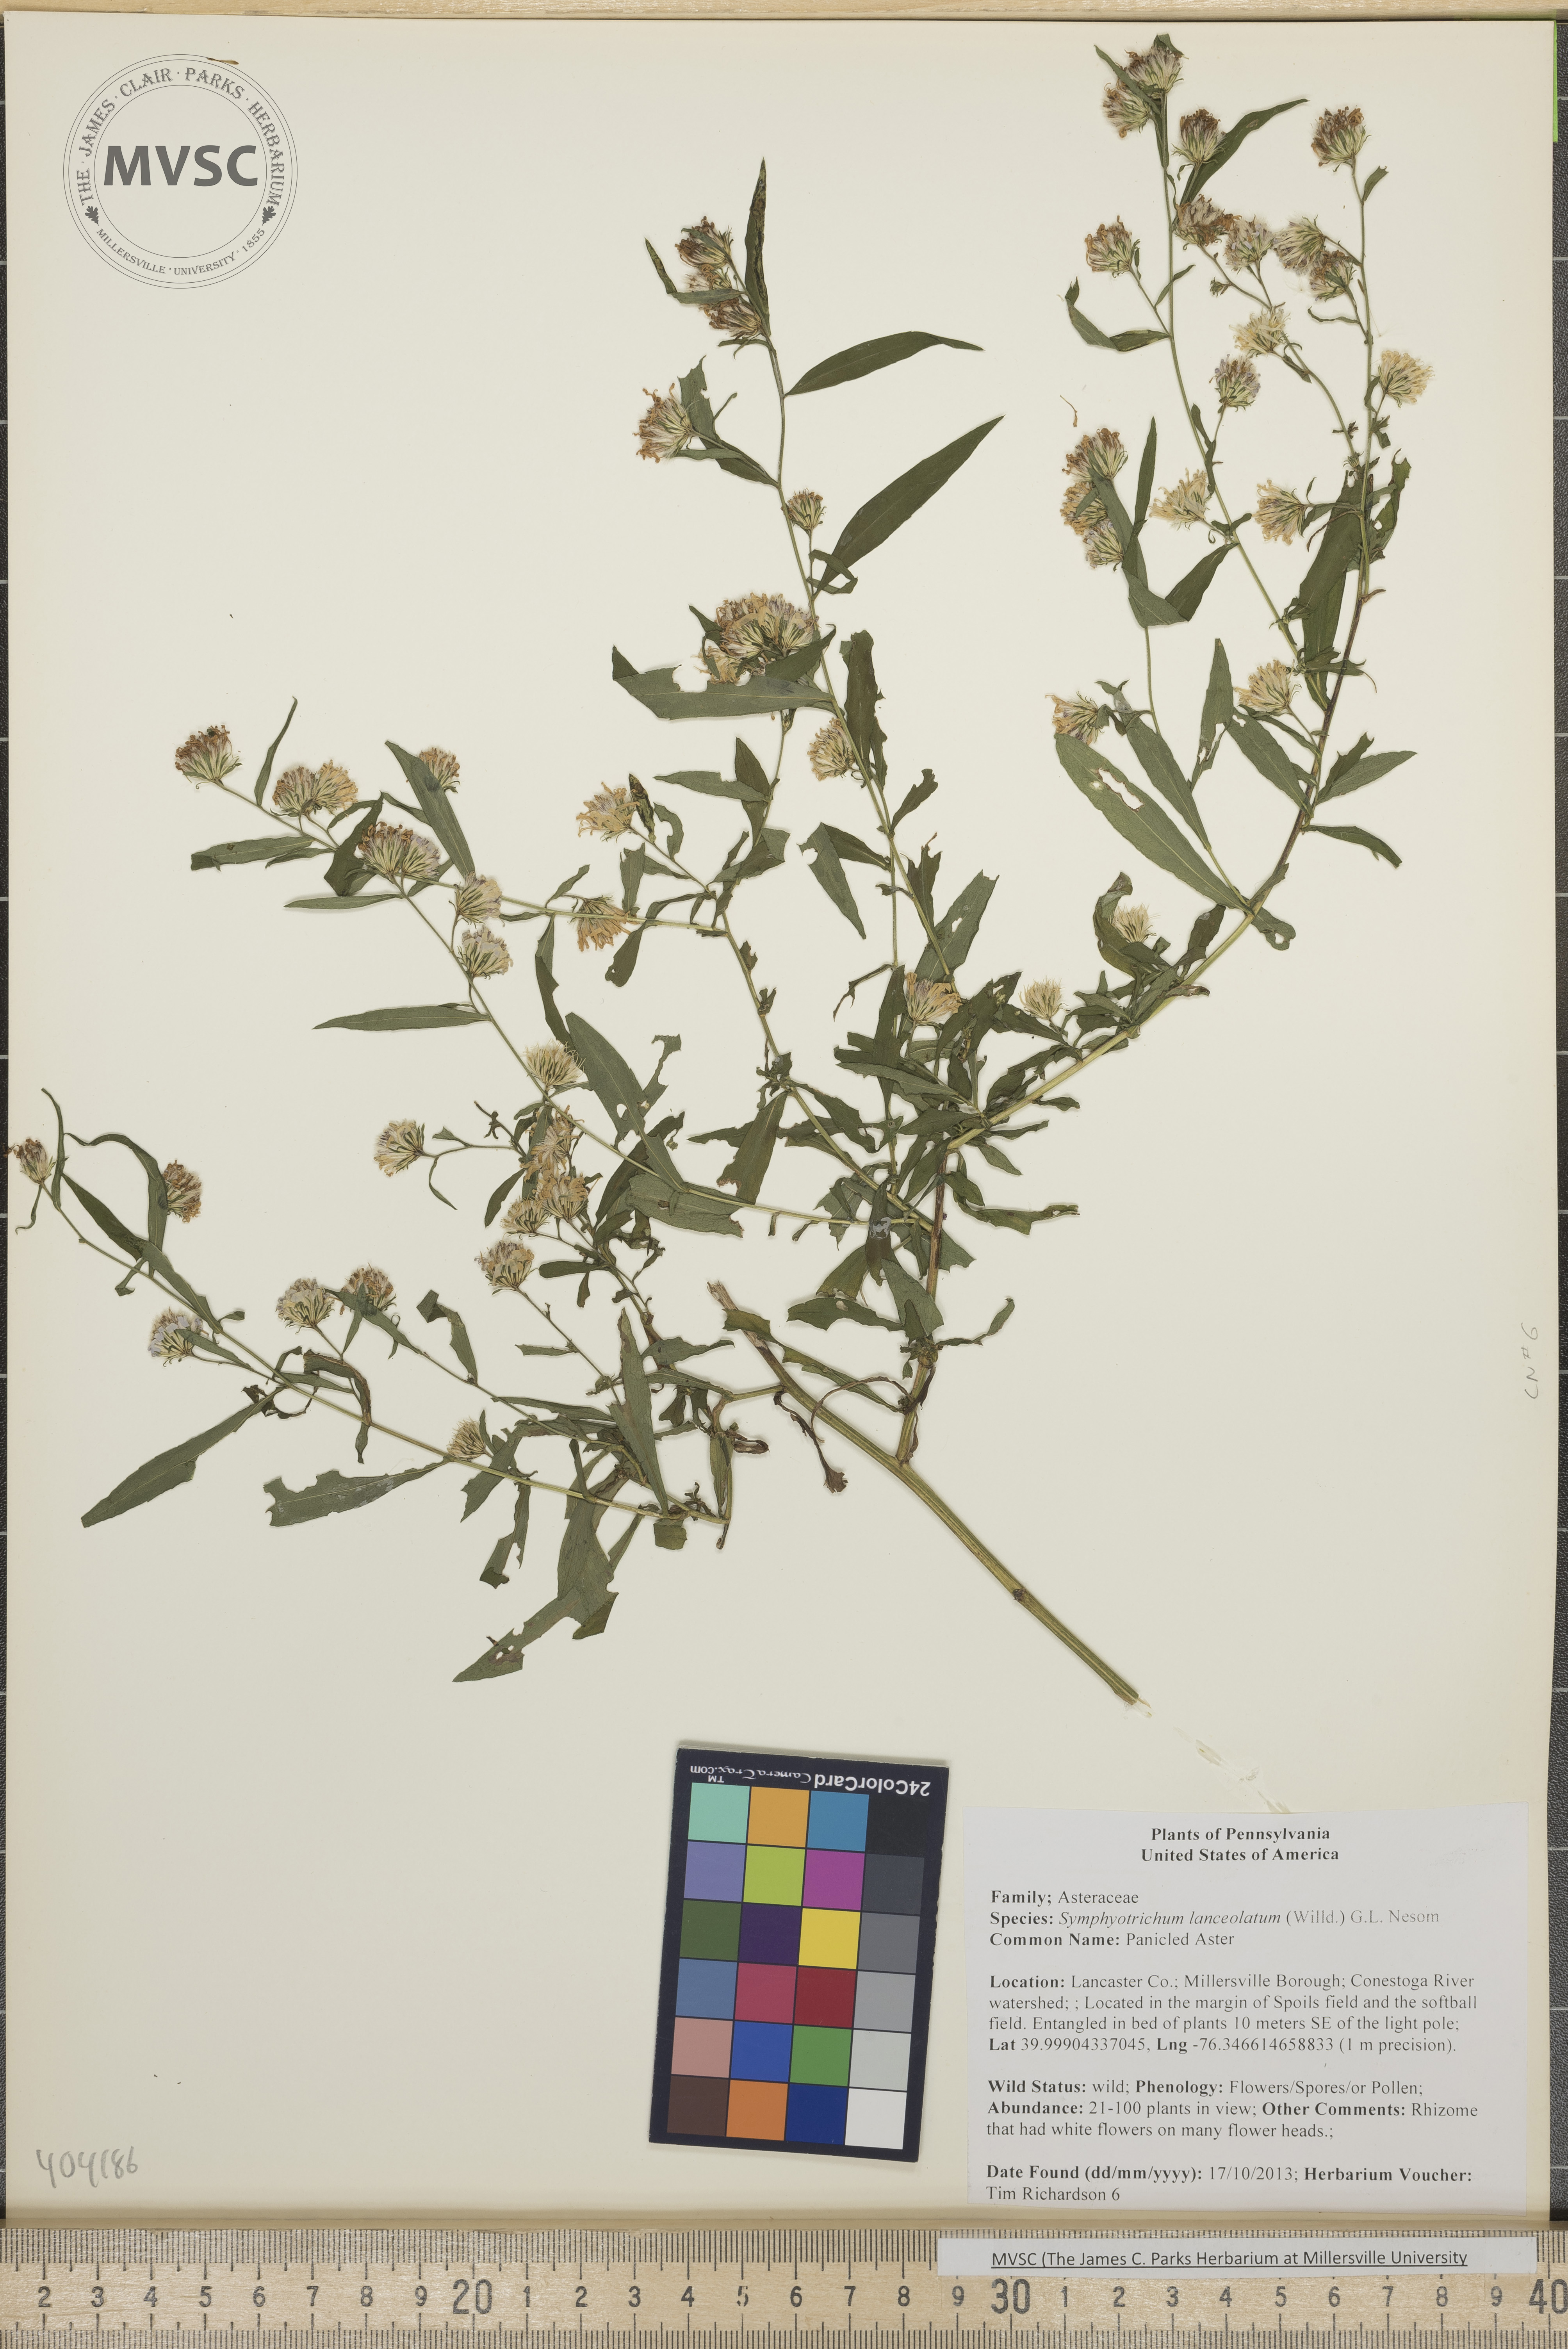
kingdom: Plantae
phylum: Tracheophyta
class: Magnoliopsida
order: Asterales
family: Asteraceae
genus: Symphyotrichum
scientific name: Symphyotrichum lanceolatum
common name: Panicled Aster
